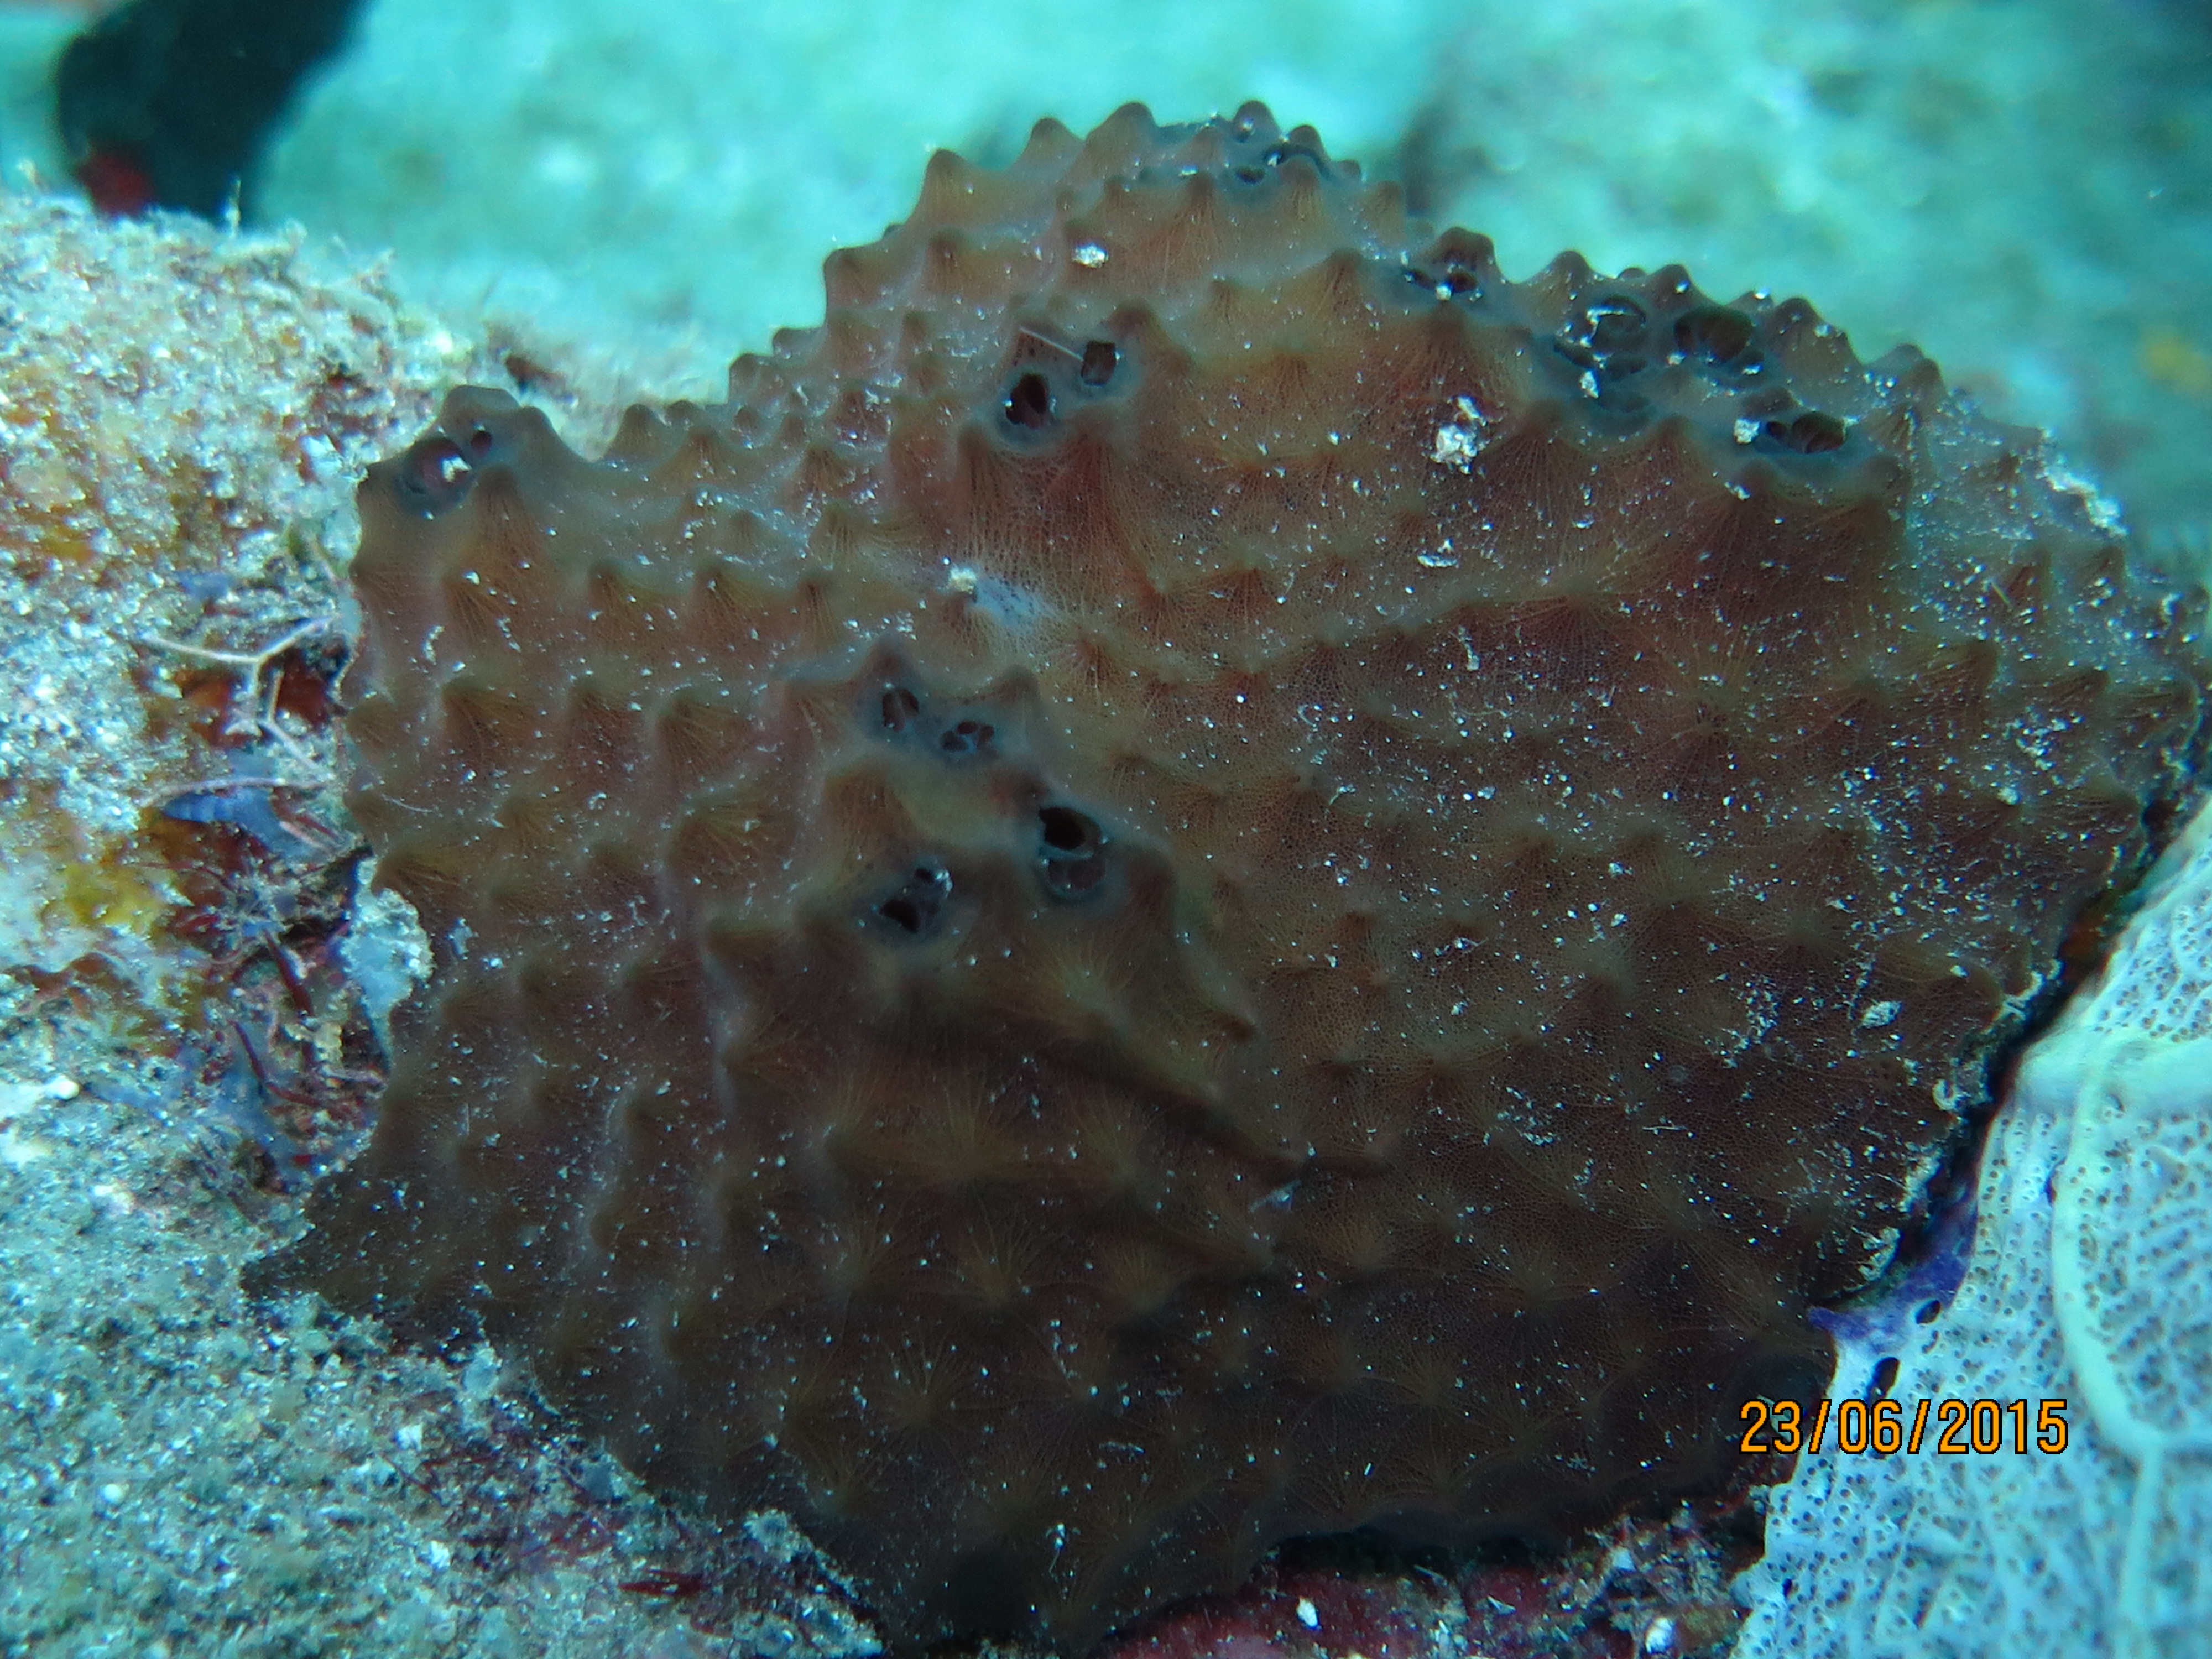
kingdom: Animalia
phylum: Porifera
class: Demospongiae
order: Dictyoceratida
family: Irciniidae
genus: Ircinia
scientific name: Ircinia
